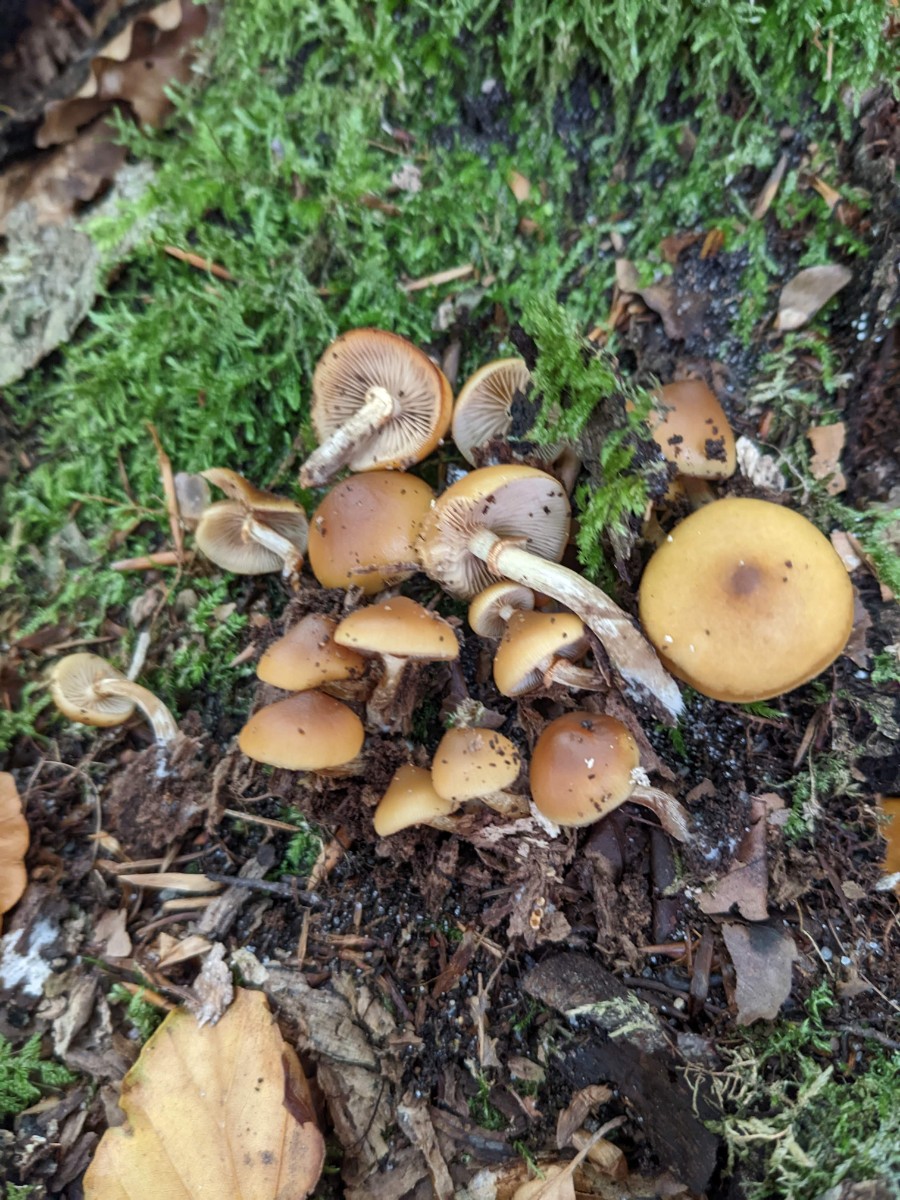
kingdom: Fungi
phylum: Basidiomycota
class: Agaricomycetes
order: Agaricales
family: Hymenogastraceae
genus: Galerina
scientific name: Galerina marginata
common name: randbæltet hjelmhat
